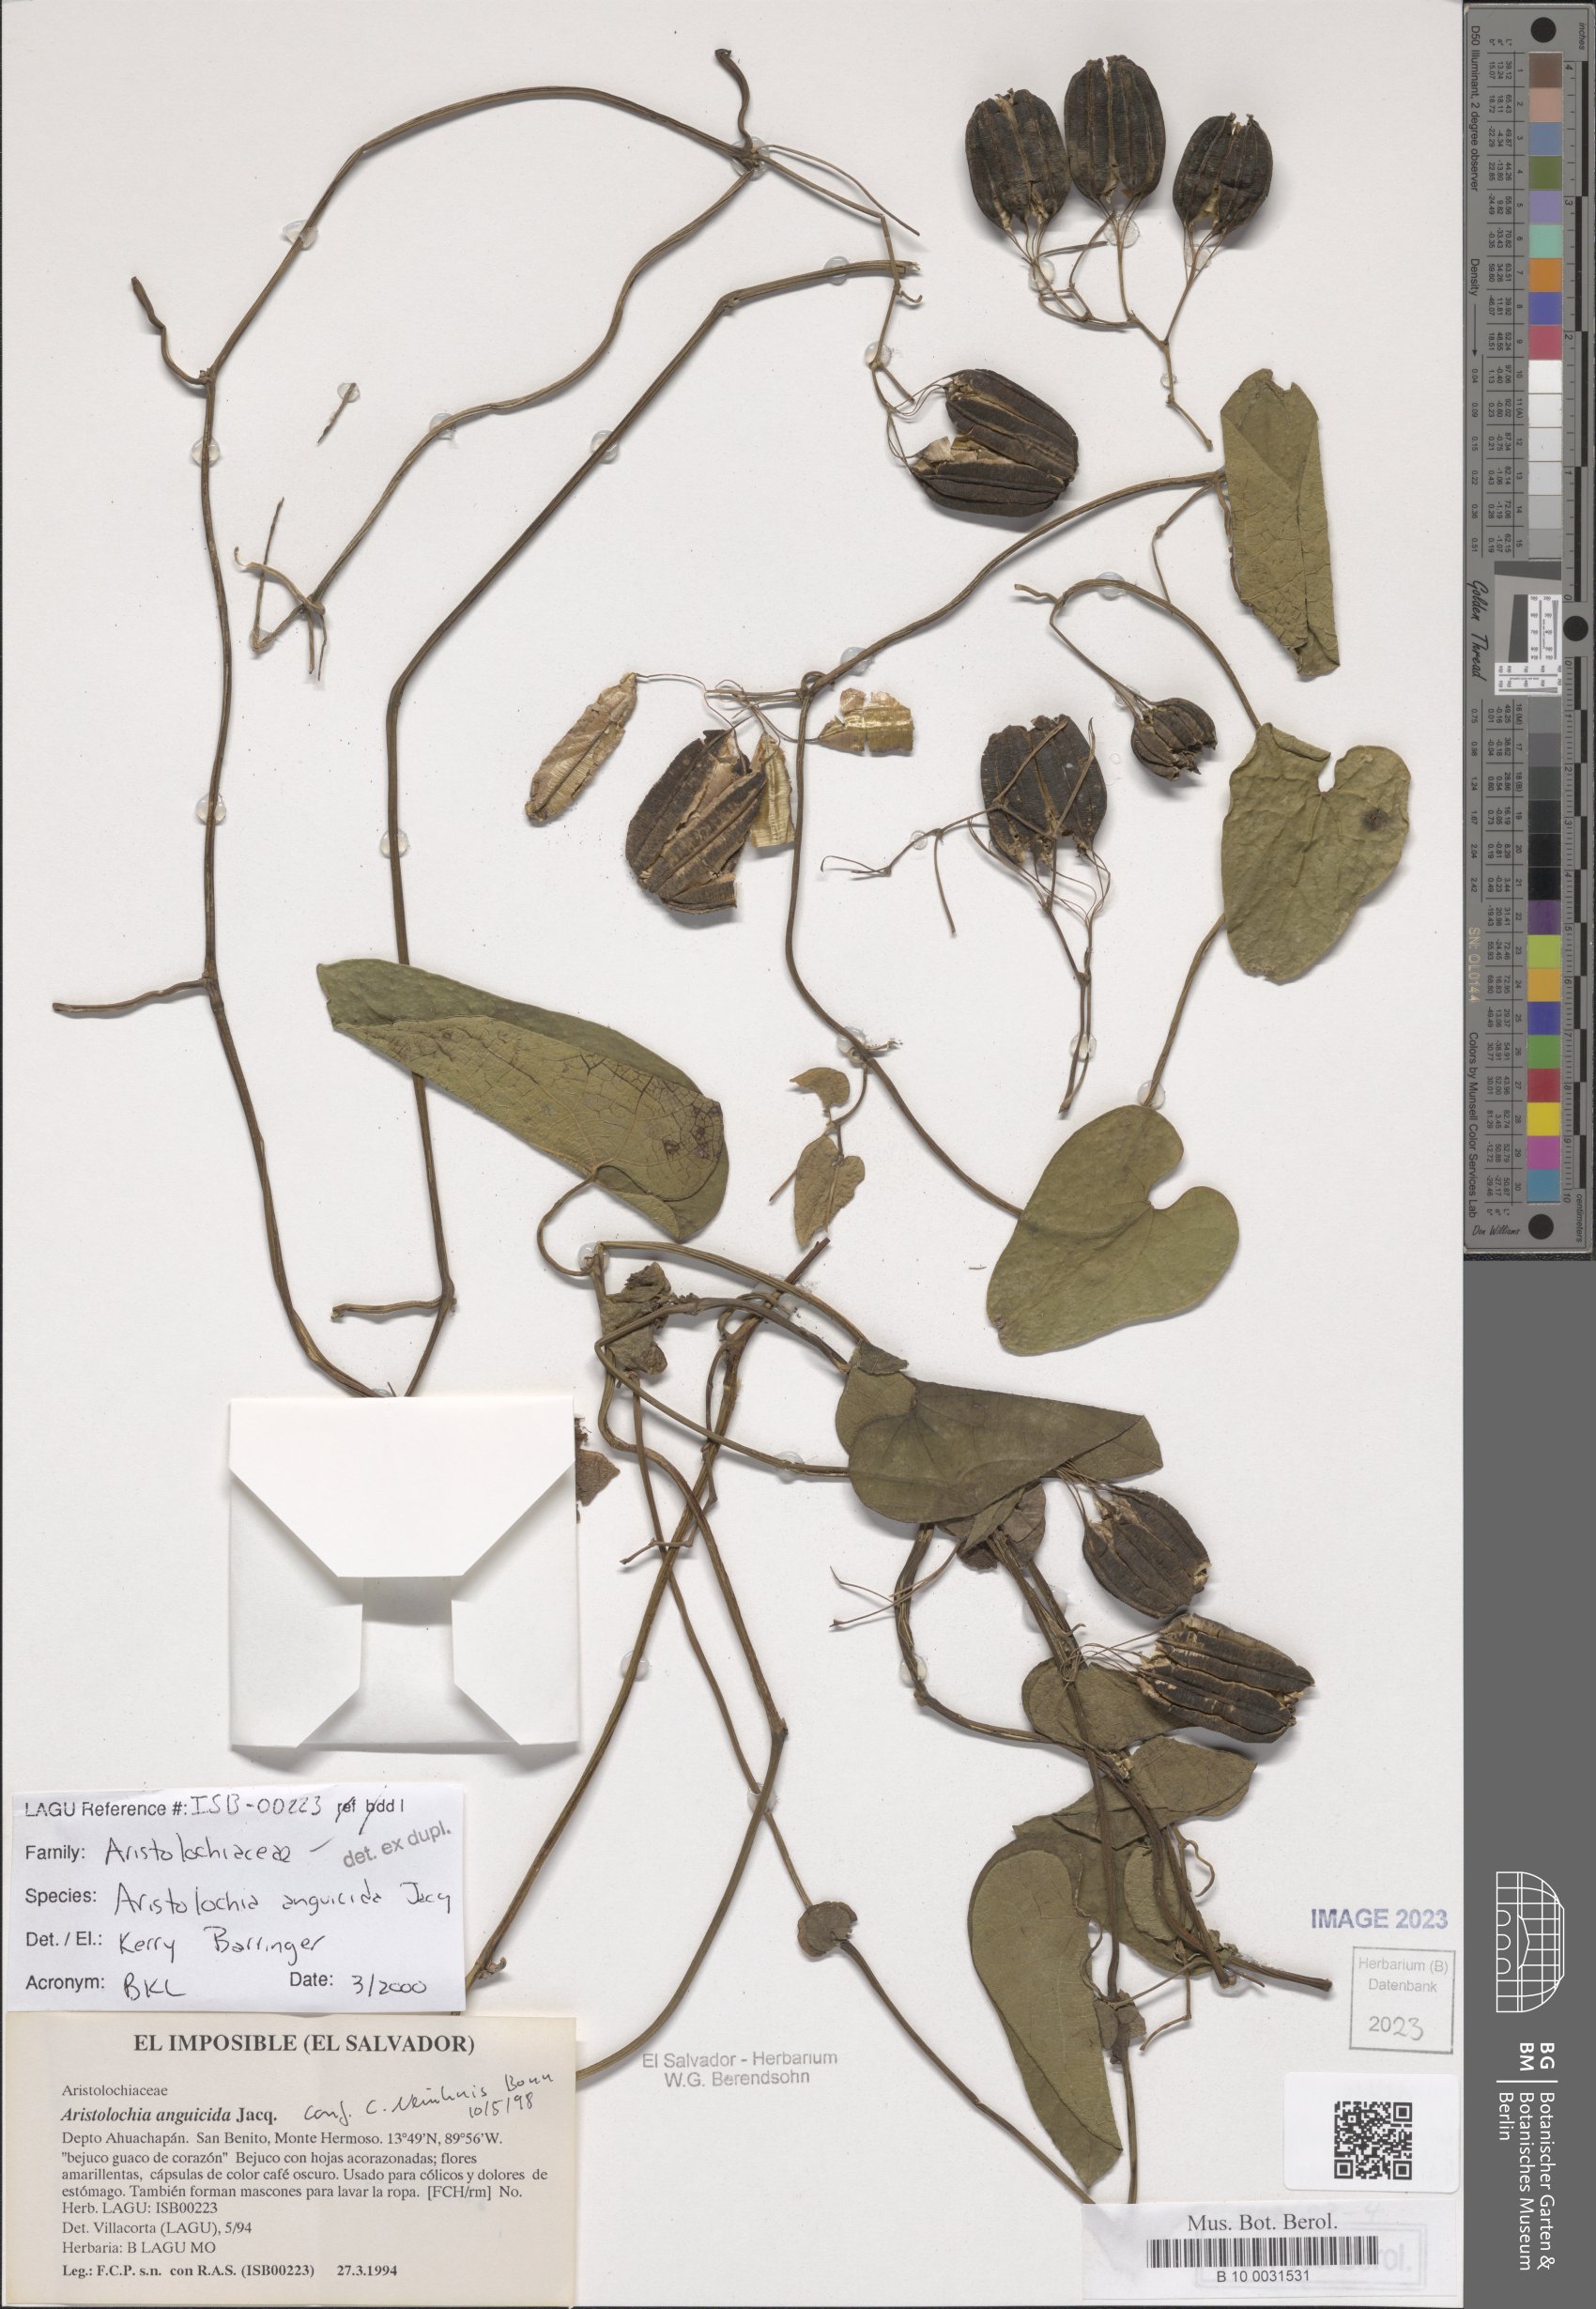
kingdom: Plantae
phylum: Tracheophyta
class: Magnoliopsida
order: Piperales
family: Aristolochiaceae
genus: Aristolochia
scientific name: Aristolochia anguicida
